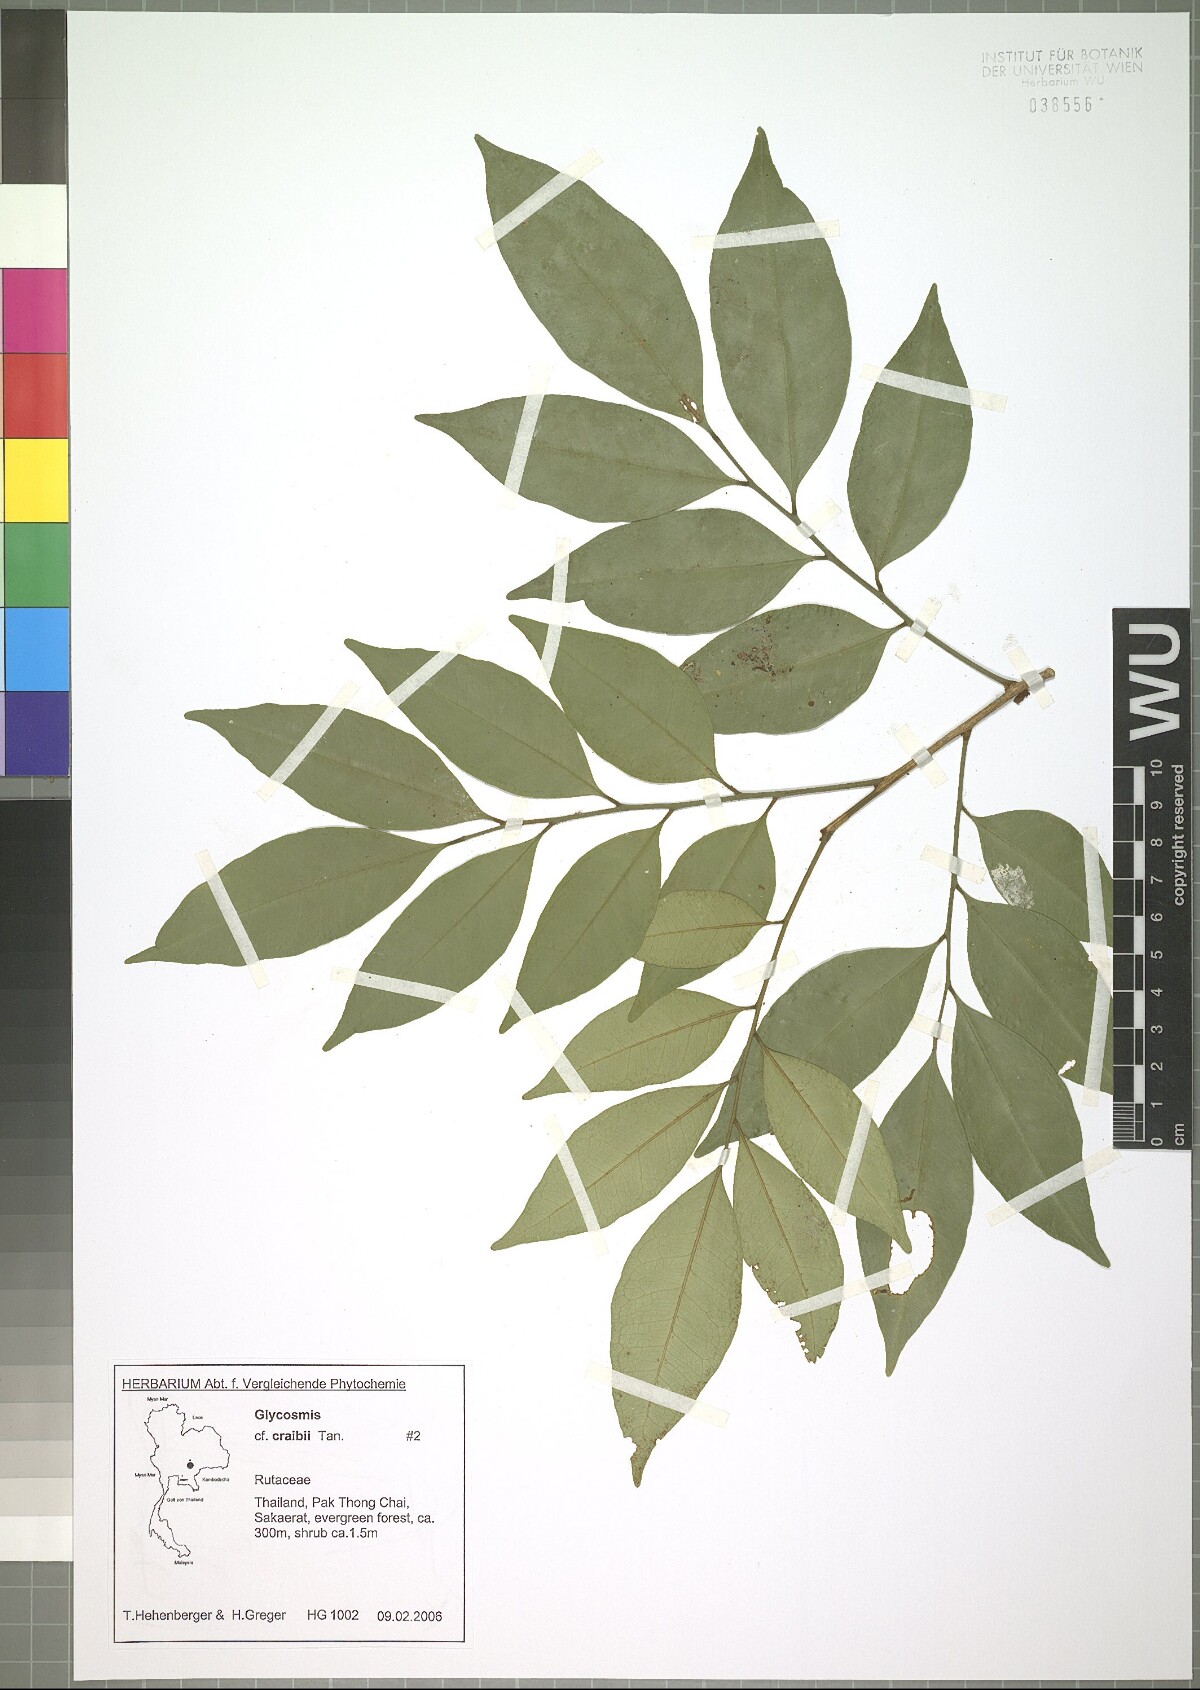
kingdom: Plantae
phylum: Tracheophyta
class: Magnoliopsida
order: Sapindales
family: Rutaceae
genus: Glycosmis
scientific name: Glycosmis craibii
